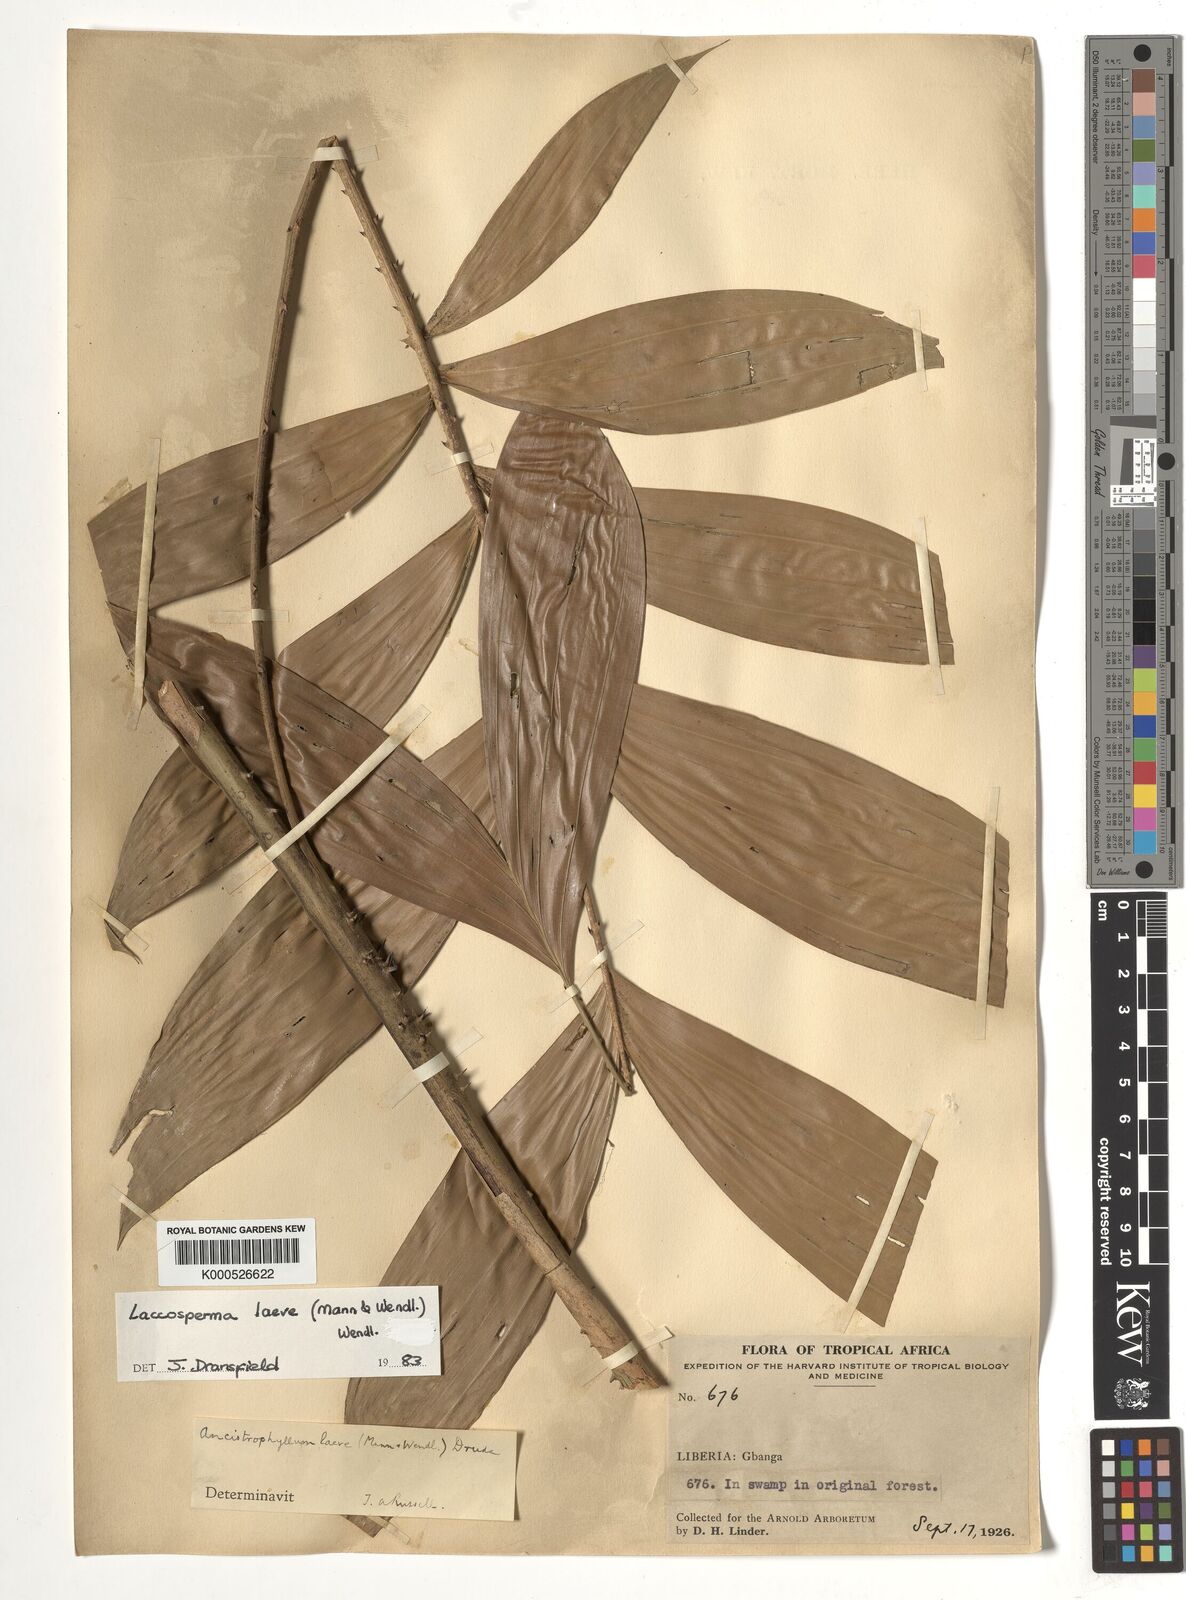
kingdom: Plantae
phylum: Tracheophyta
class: Liliopsida
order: Arecales
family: Arecaceae
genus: Laccosperma
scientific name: Laccosperma laeve
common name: Rattan
